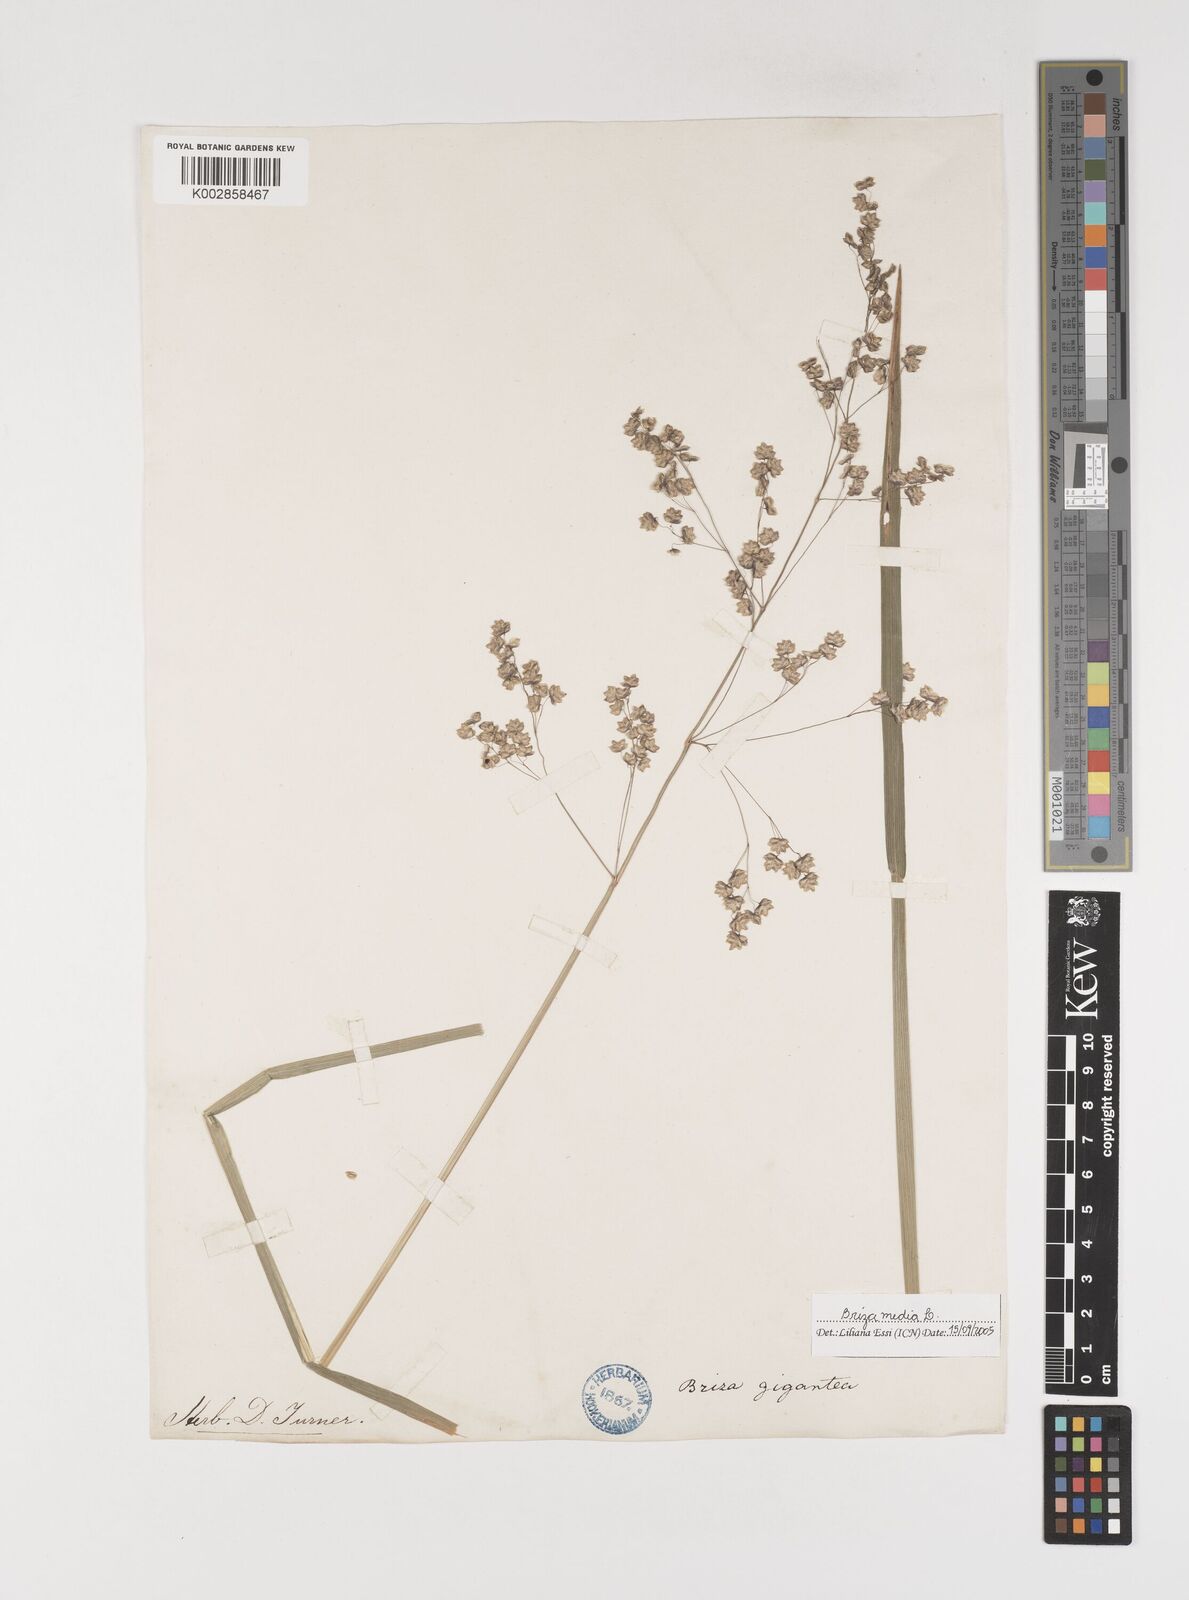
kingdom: Plantae
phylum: Tracheophyta
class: Liliopsida
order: Poales
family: Poaceae
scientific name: Poaceae
